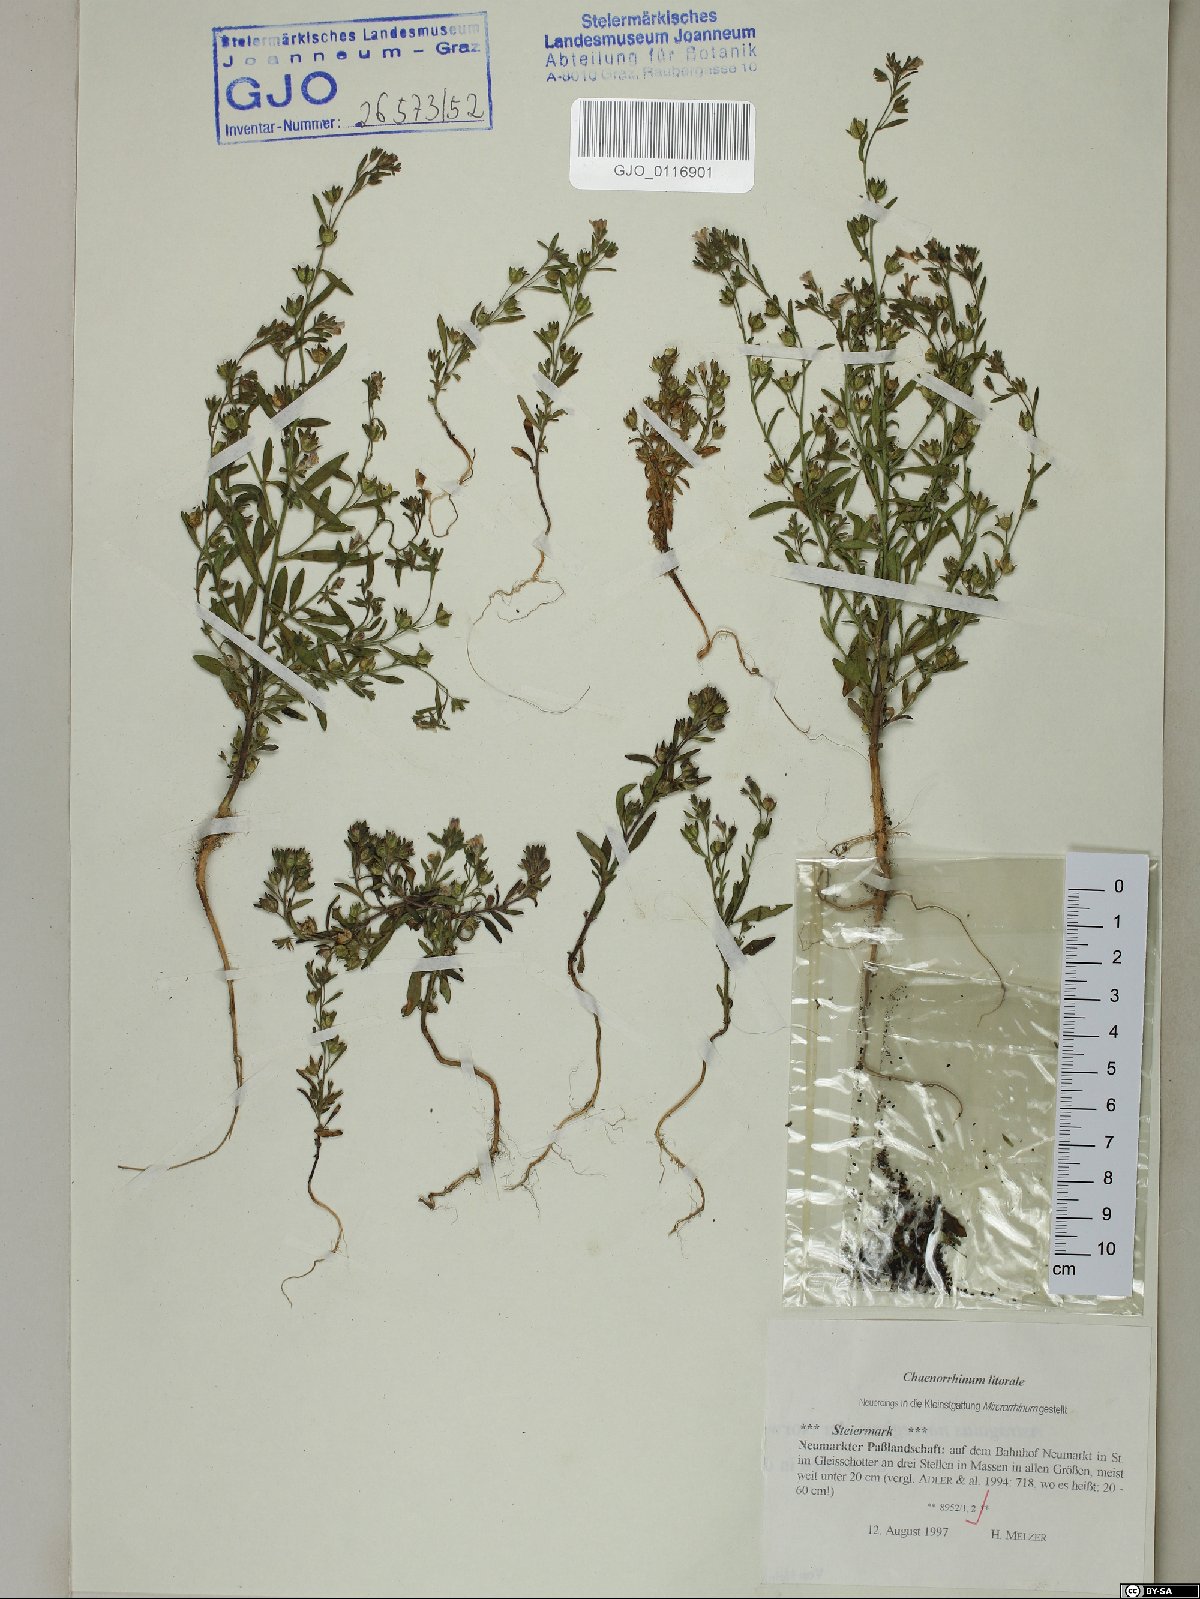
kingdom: Plantae
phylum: Tracheophyta
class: Magnoliopsida
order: Lamiales
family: Plantaginaceae
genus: Chaenorhinum
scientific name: Chaenorhinum litorale
